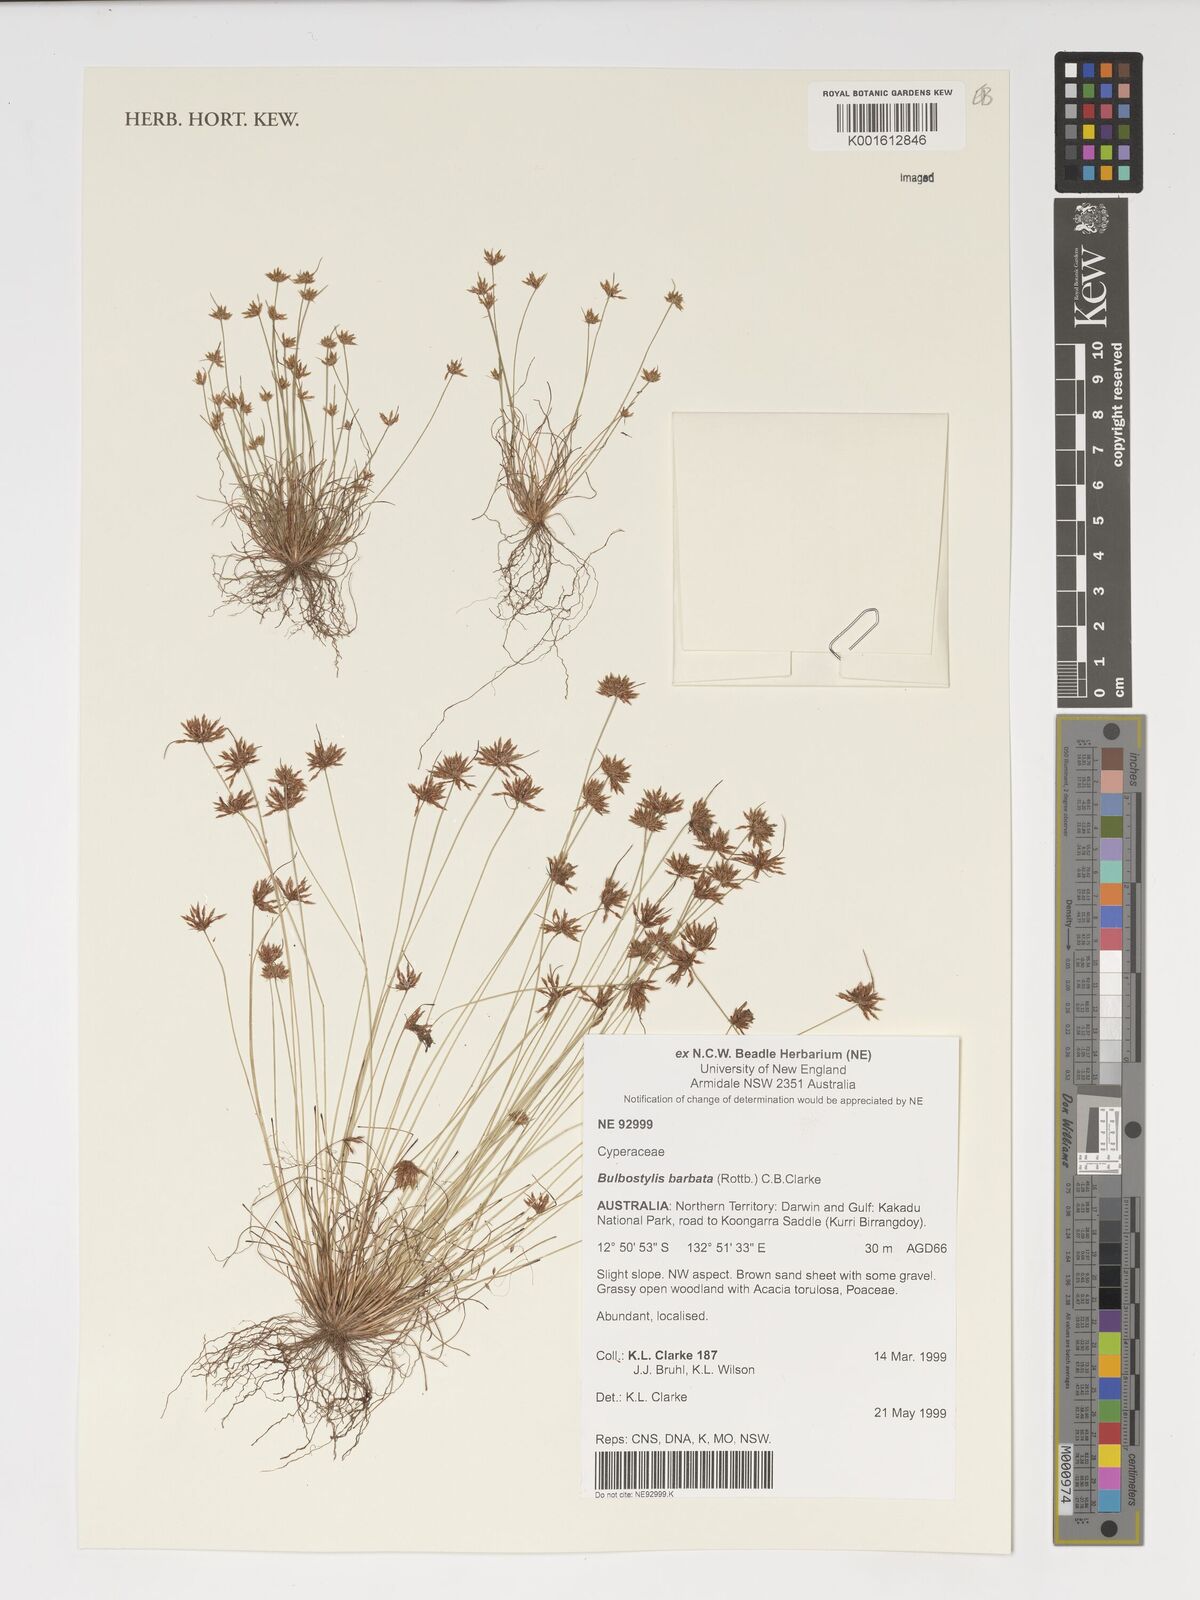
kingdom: Plantae
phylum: Tracheophyta
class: Liliopsida
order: Poales
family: Cyperaceae
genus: Bulbostylis
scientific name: Bulbostylis barbata
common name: Watergrass
